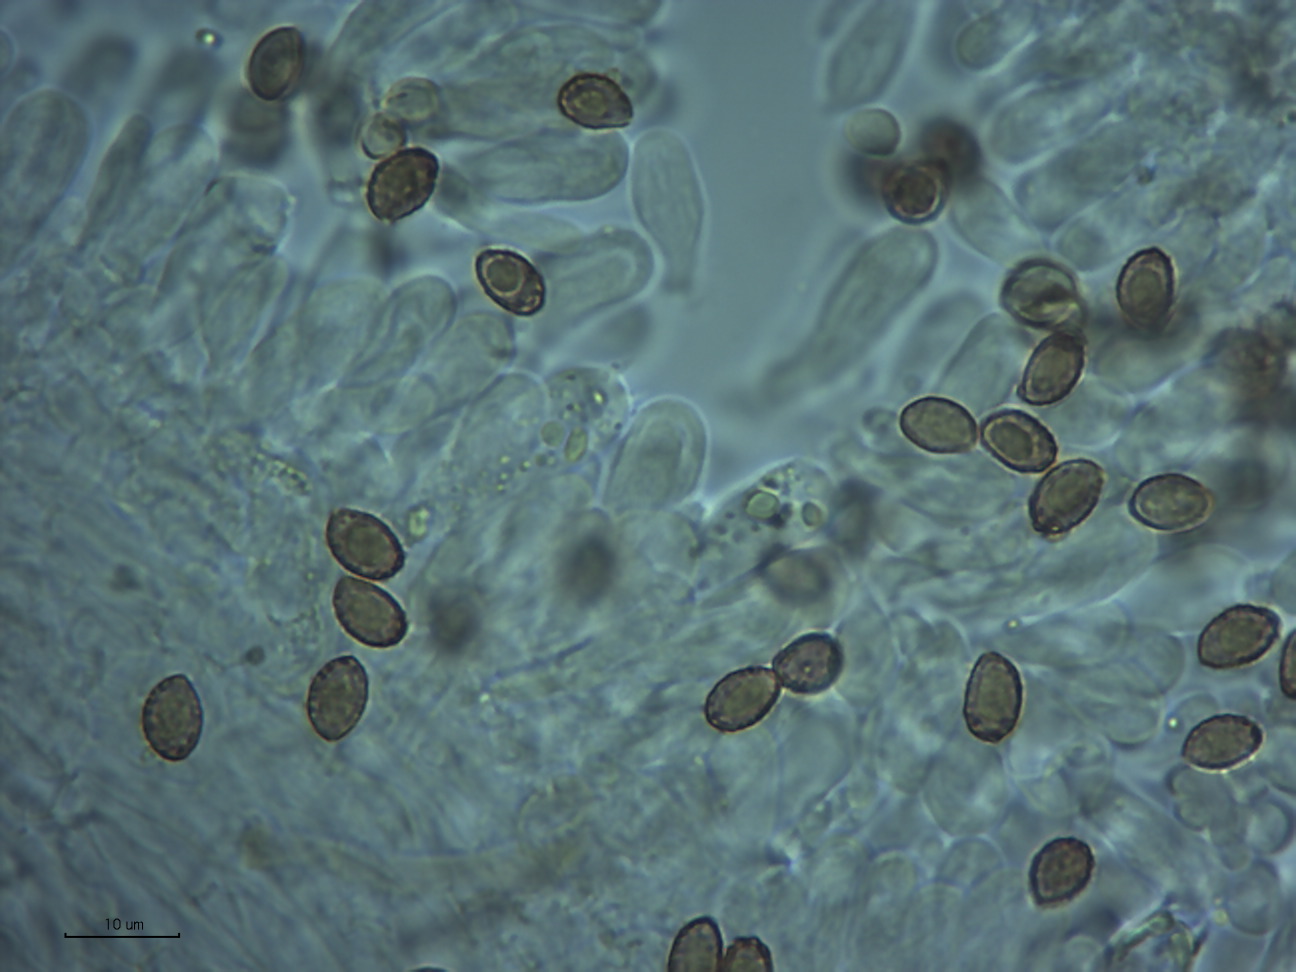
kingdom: Fungi
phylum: Basidiomycota
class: Agaricomycetes
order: Agaricales
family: Cortinariaceae
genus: Cortinarius
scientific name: Cortinarius acutispissipes
